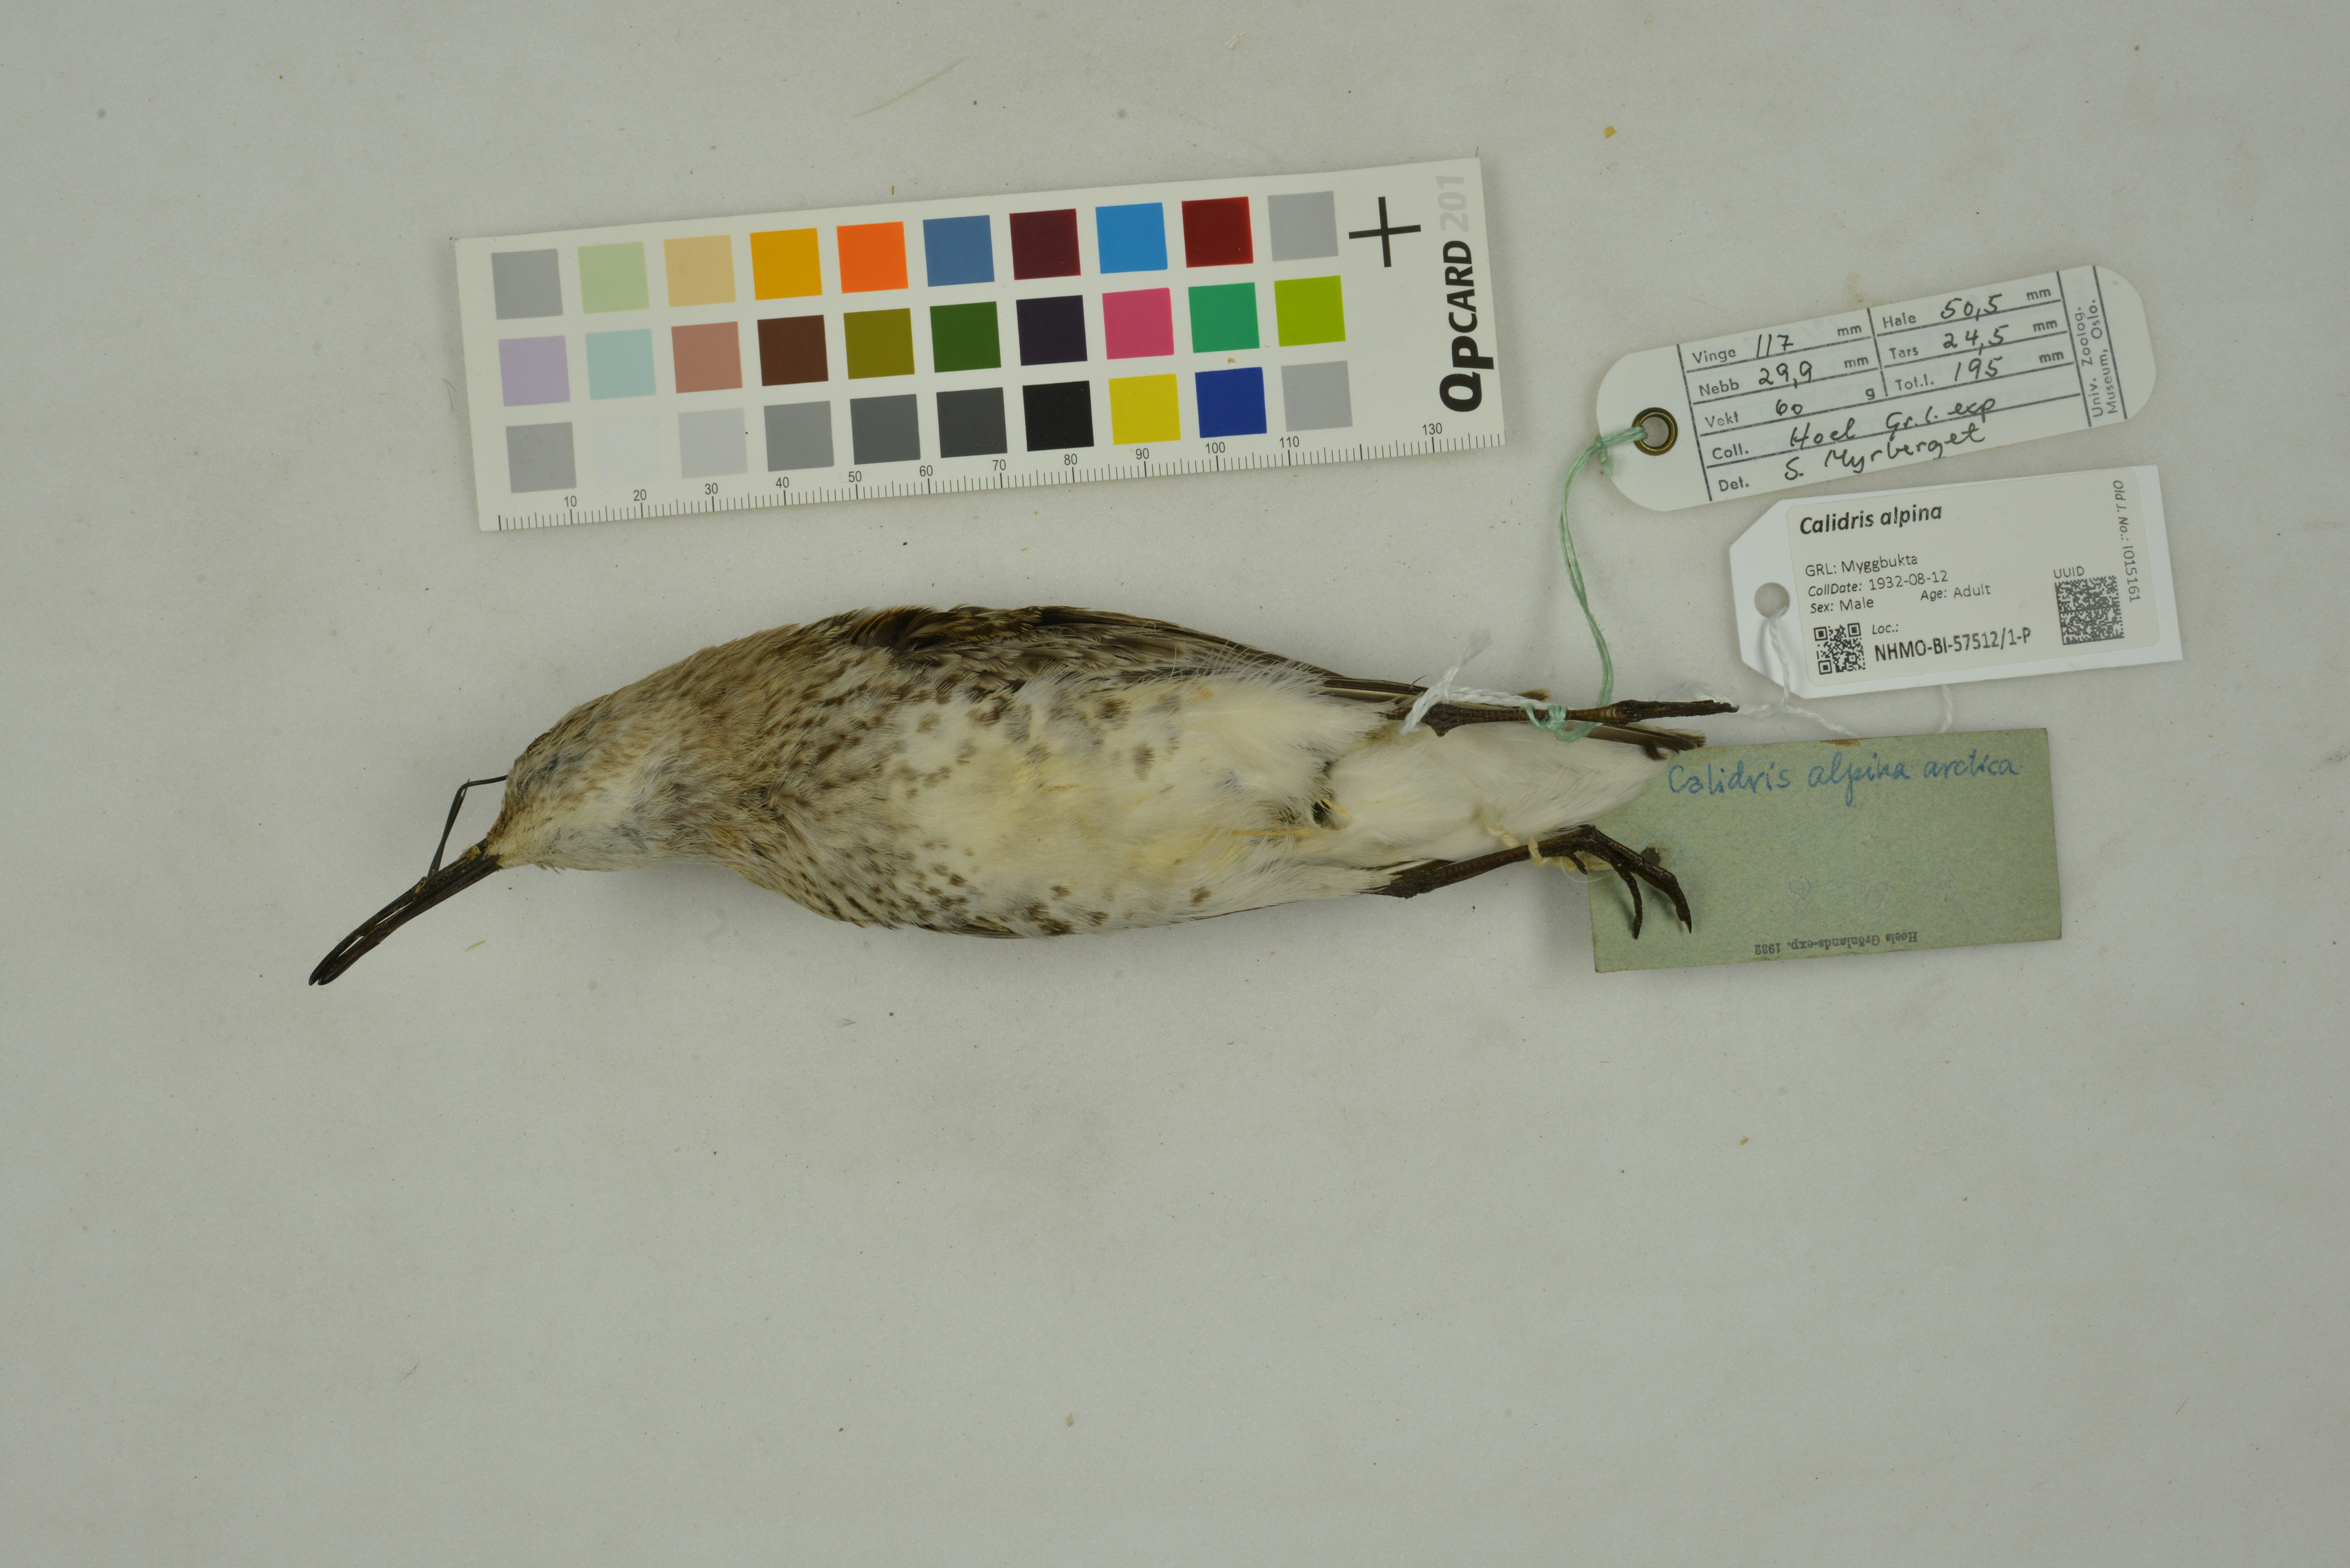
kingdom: Animalia
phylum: Chordata
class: Aves
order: Charadriiformes
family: Scolopacidae
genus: Calidris
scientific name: Calidris alpina
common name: Dunlin
